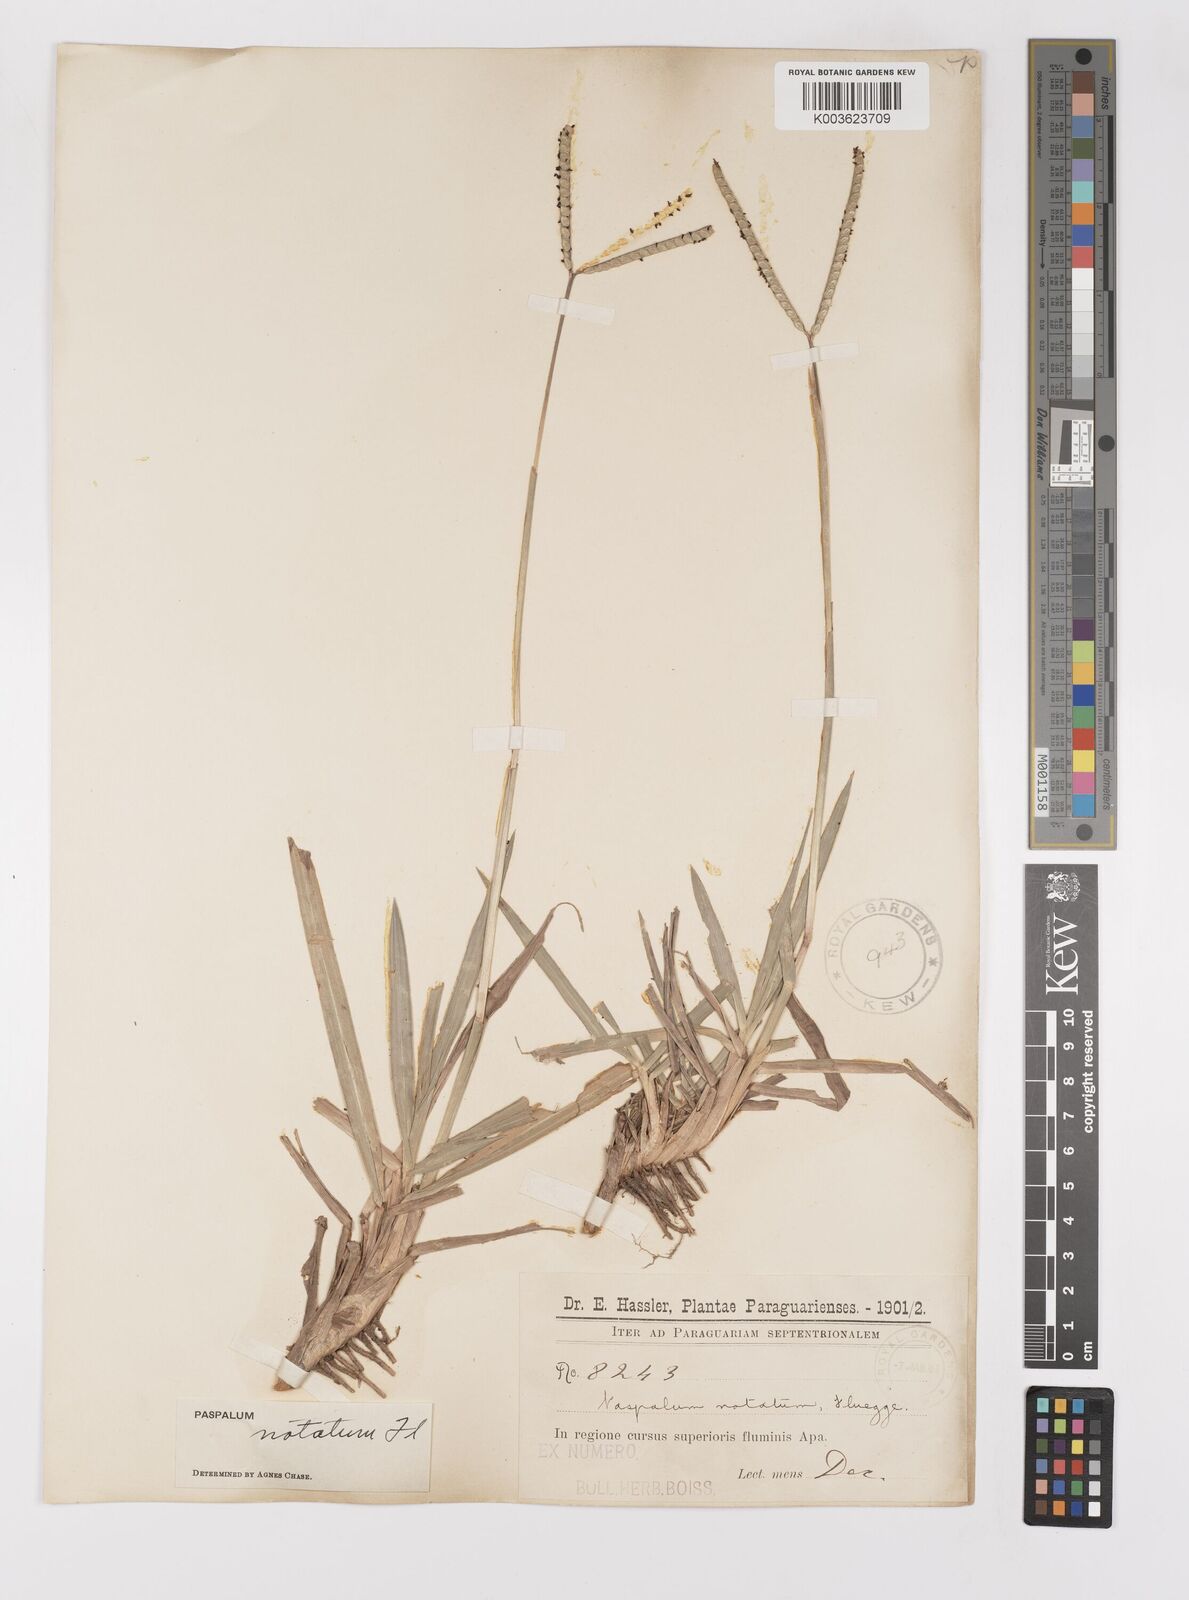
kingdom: Plantae
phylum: Tracheophyta
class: Liliopsida
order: Poales
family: Poaceae
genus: Paspalum
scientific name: Paspalum notatum
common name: Bahiagrass
